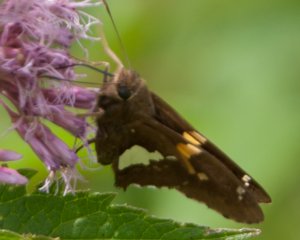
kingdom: Animalia
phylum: Arthropoda
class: Insecta
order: Lepidoptera
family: Hesperiidae
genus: Epargyreus
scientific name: Epargyreus clarus
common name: Silver-spotted Skipper
